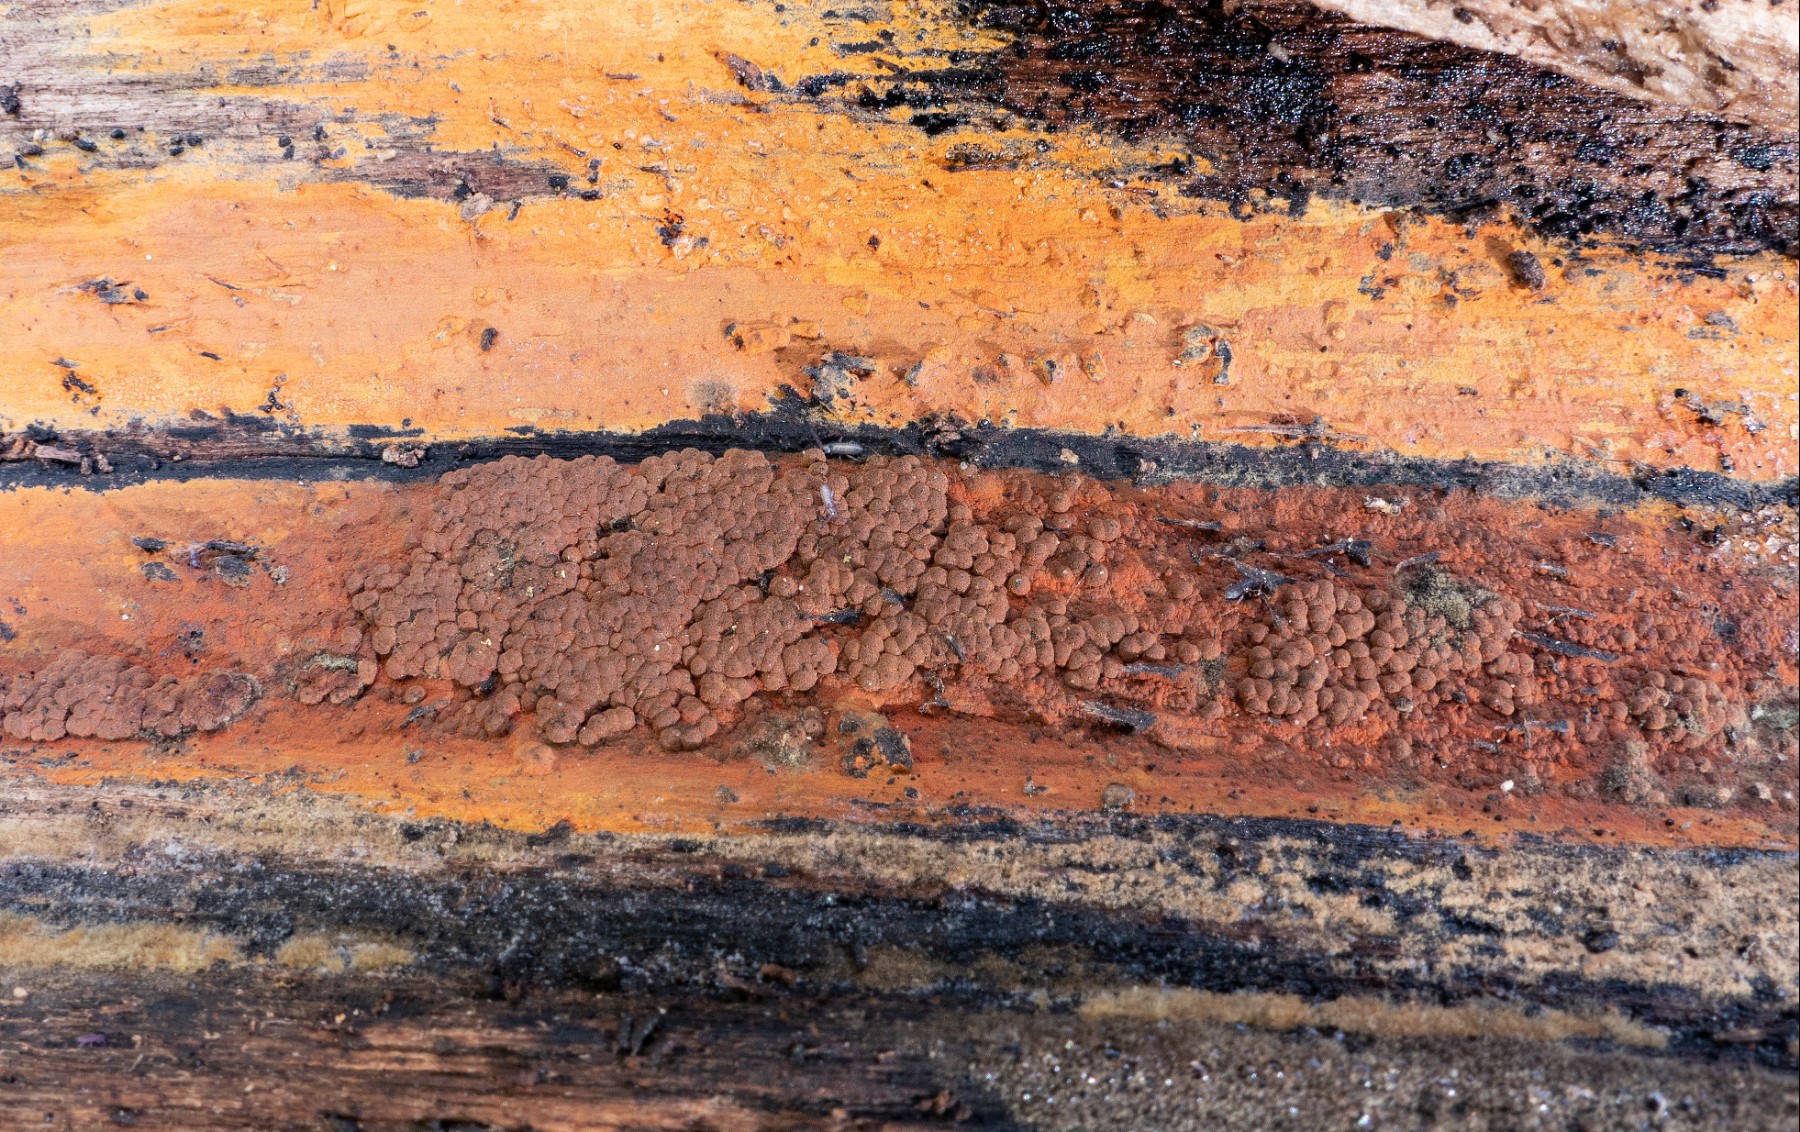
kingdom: Fungi
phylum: Ascomycota
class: Sordariomycetes
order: Xylariales
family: Hypoxylaceae
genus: Hypoxylon
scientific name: Hypoxylon rubiginosum
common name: rustfarvet kulbær
